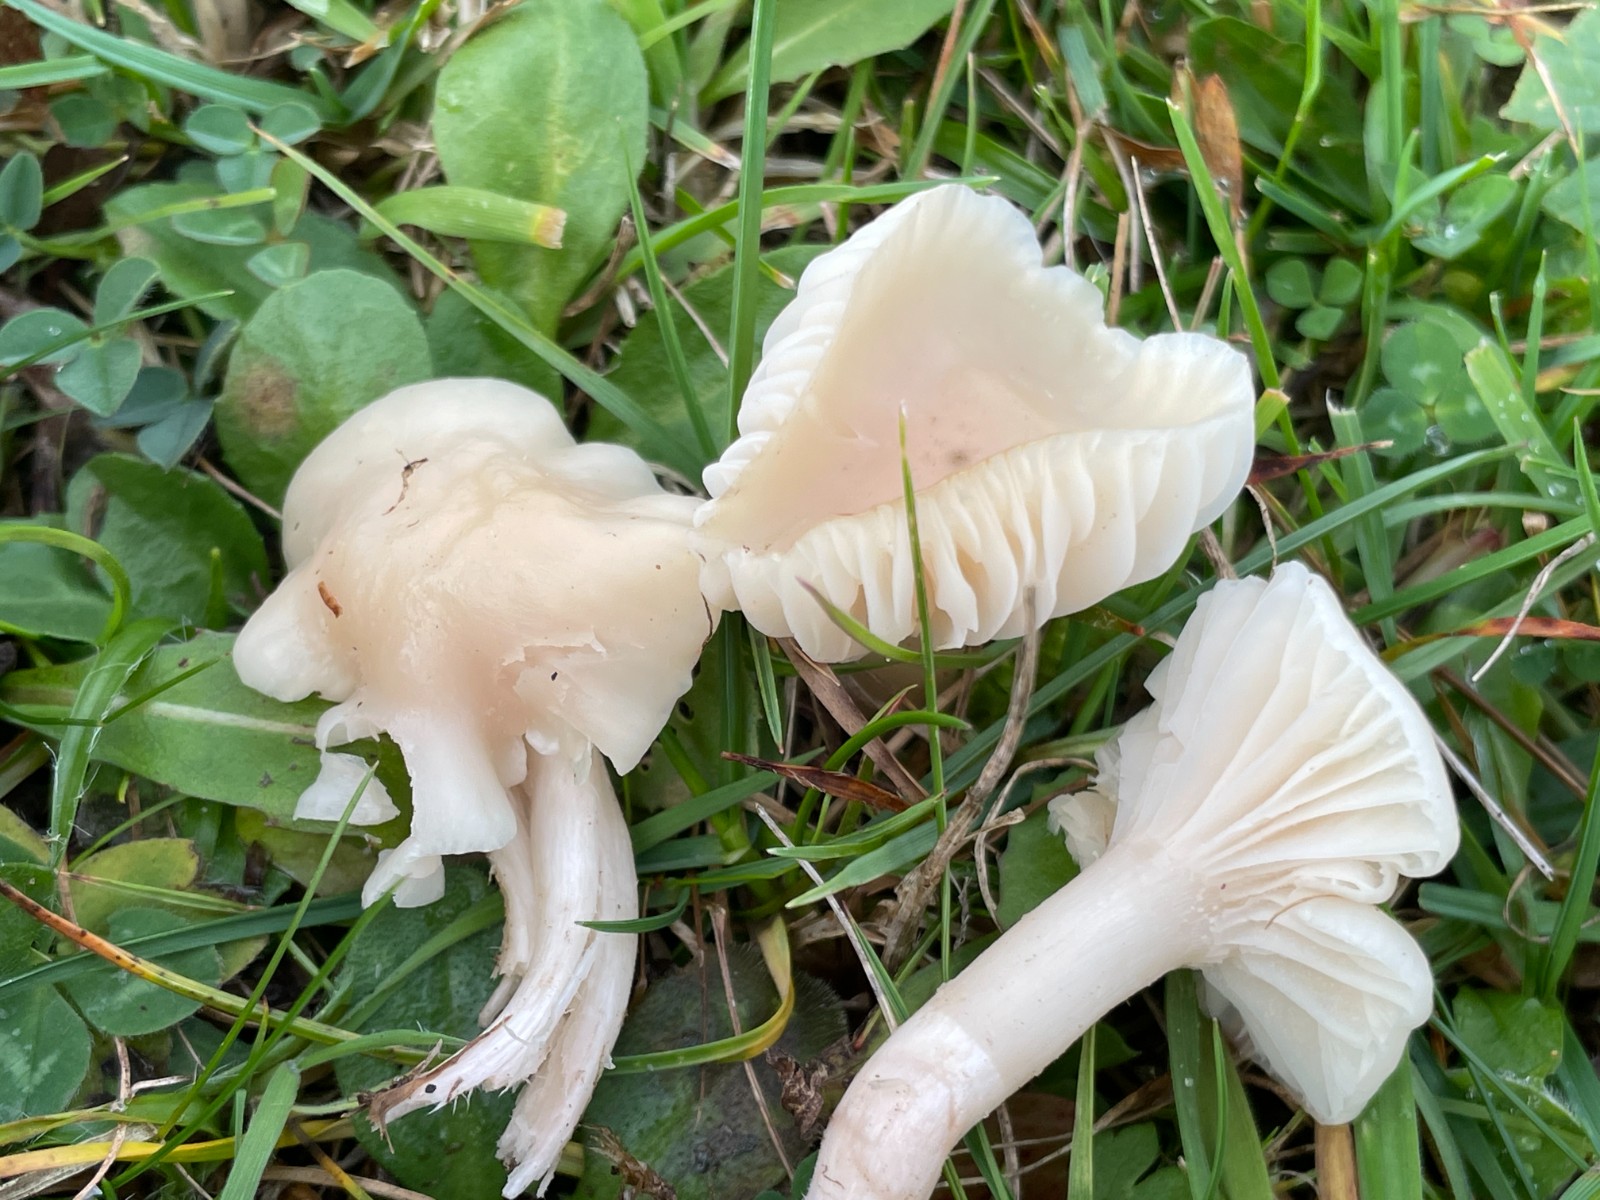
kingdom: Fungi
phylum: Basidiomycota
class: Agaricomycetes
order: Agaricales
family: Hygrophoraceae
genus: Cuphophyllus
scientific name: Cuphophyllus virgineus
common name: isabella-vokshat
